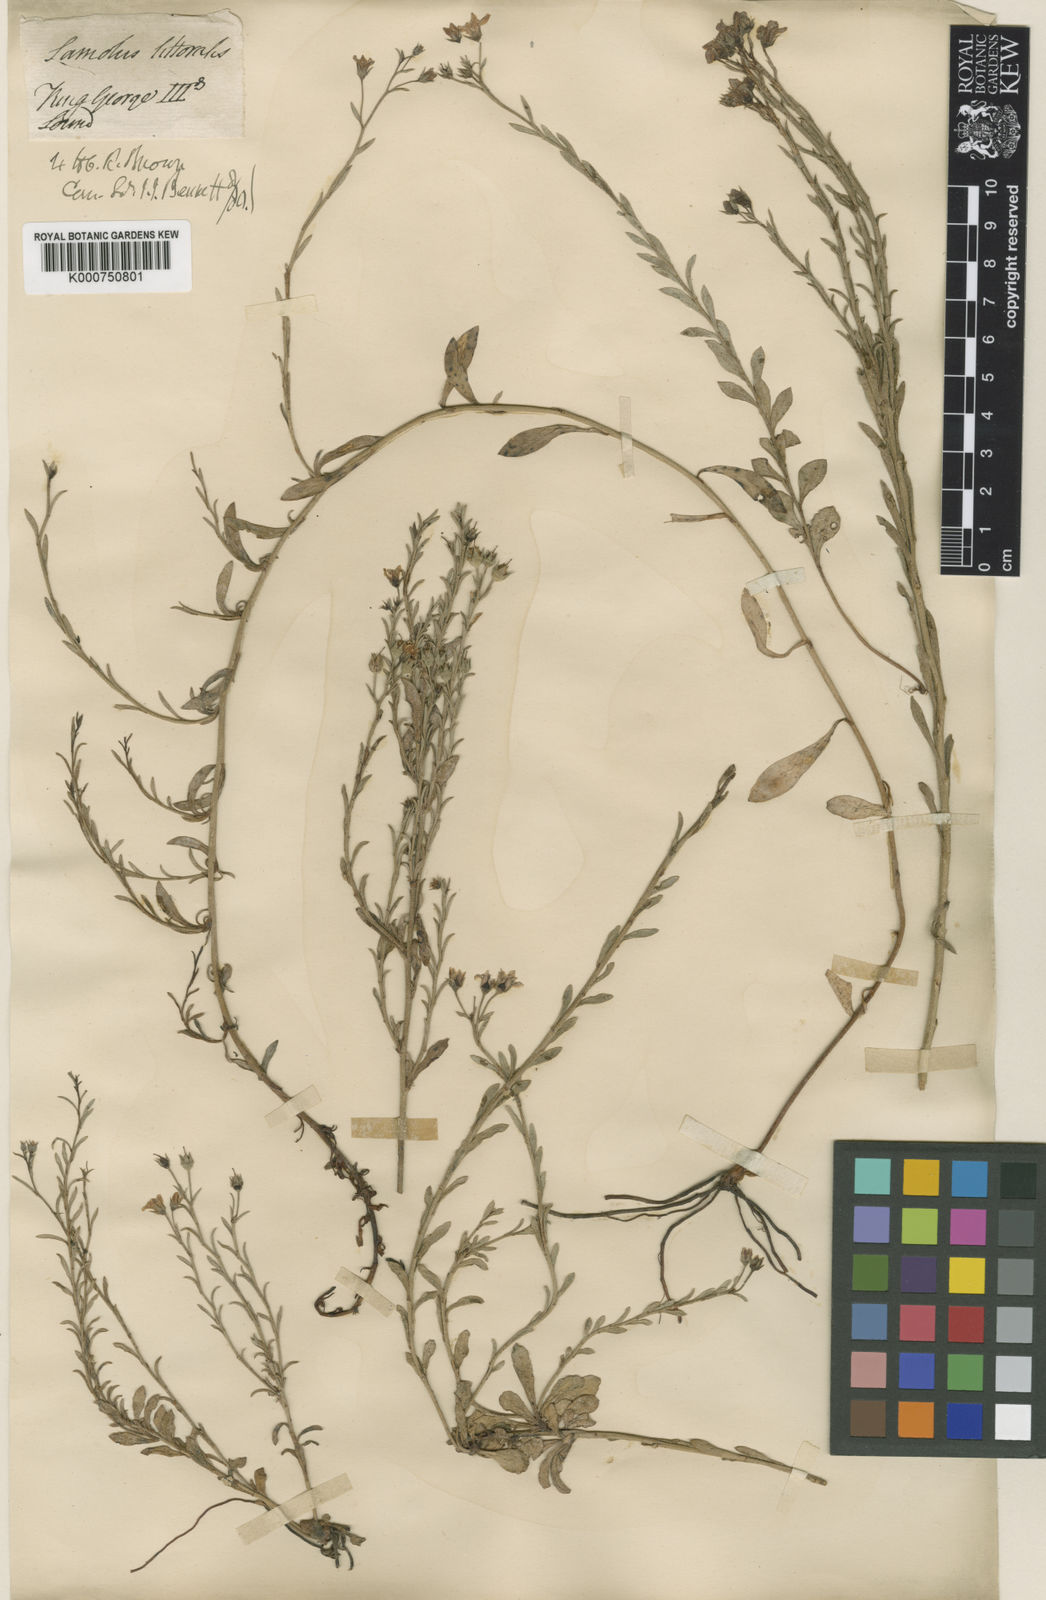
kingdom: Plantae
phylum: Tracheophyta
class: Magnoliopsida
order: Ericales
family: Primulaceae
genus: Samolus
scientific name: Samolus repens
